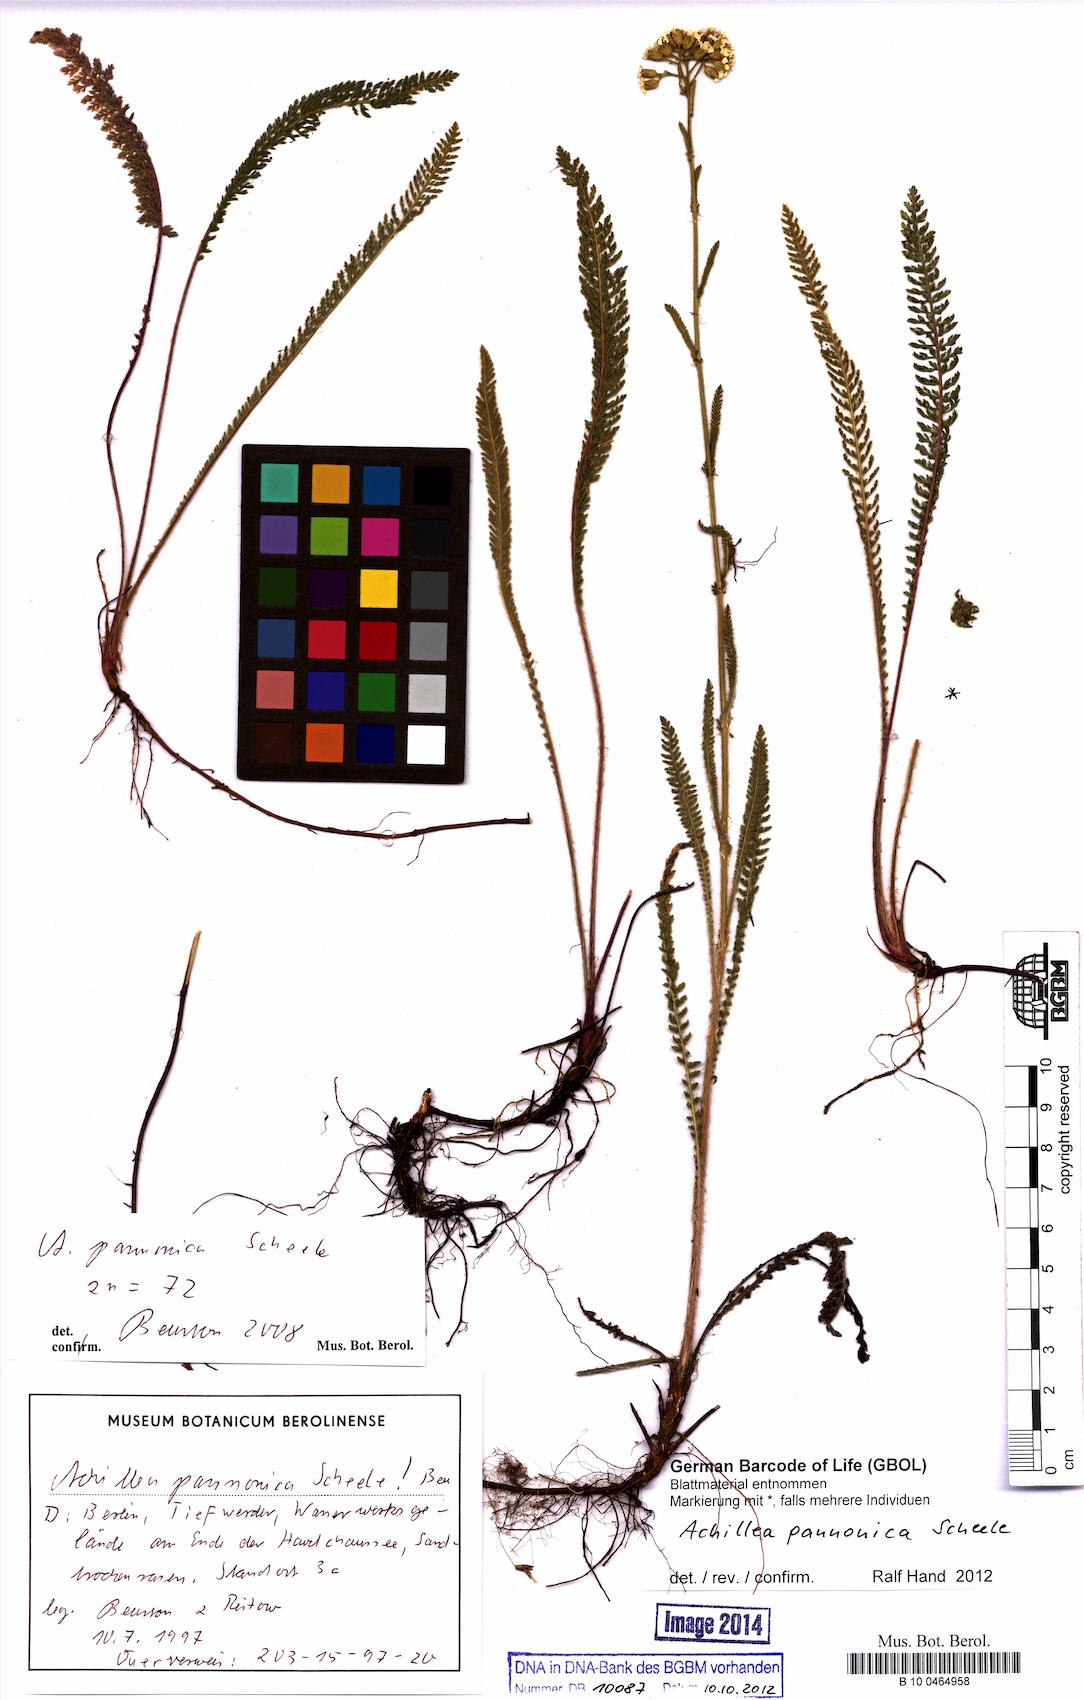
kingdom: Plantae
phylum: Tracheophyta
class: Magnoliopsida
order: Asterales
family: Asteraceae
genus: Achillea
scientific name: Achillea collina
